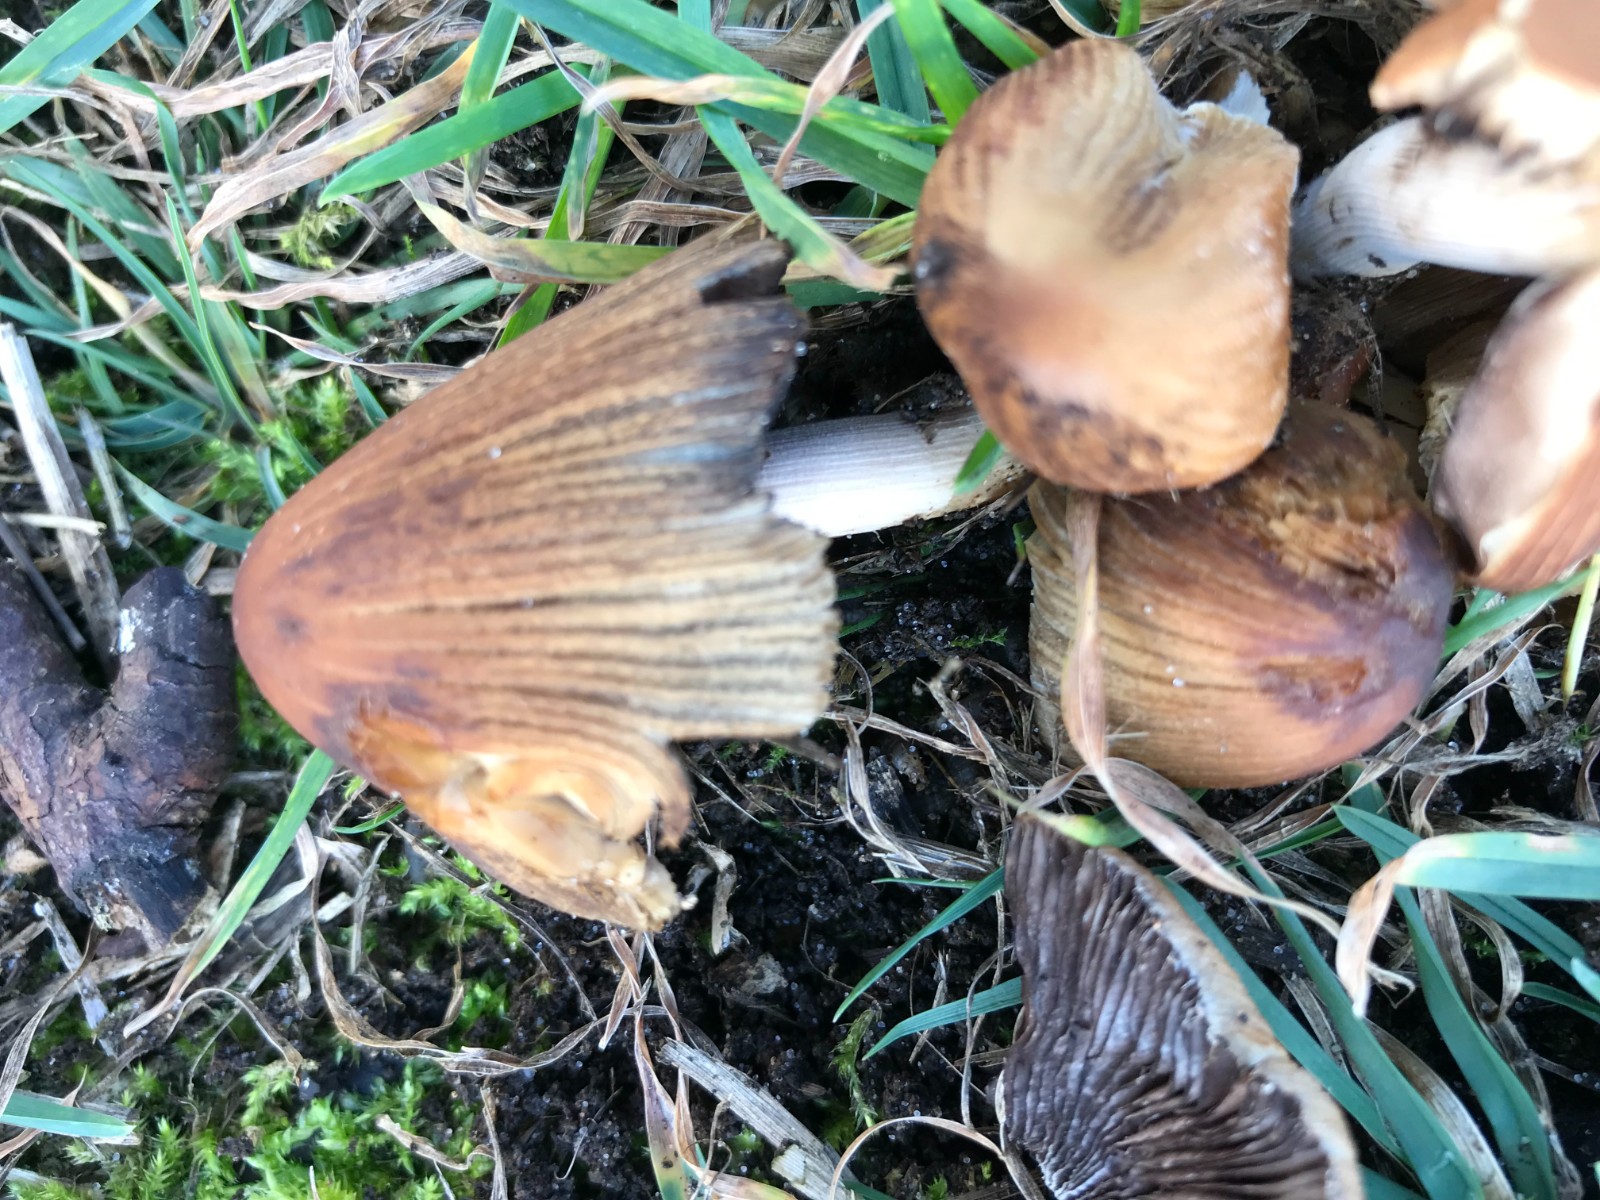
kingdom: Fungi
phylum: Basidiomycota
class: Agaricomycetes
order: Agaricales
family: Psathyrellaceae
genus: Coprinellus
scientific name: Coprinellus
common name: blækhat
